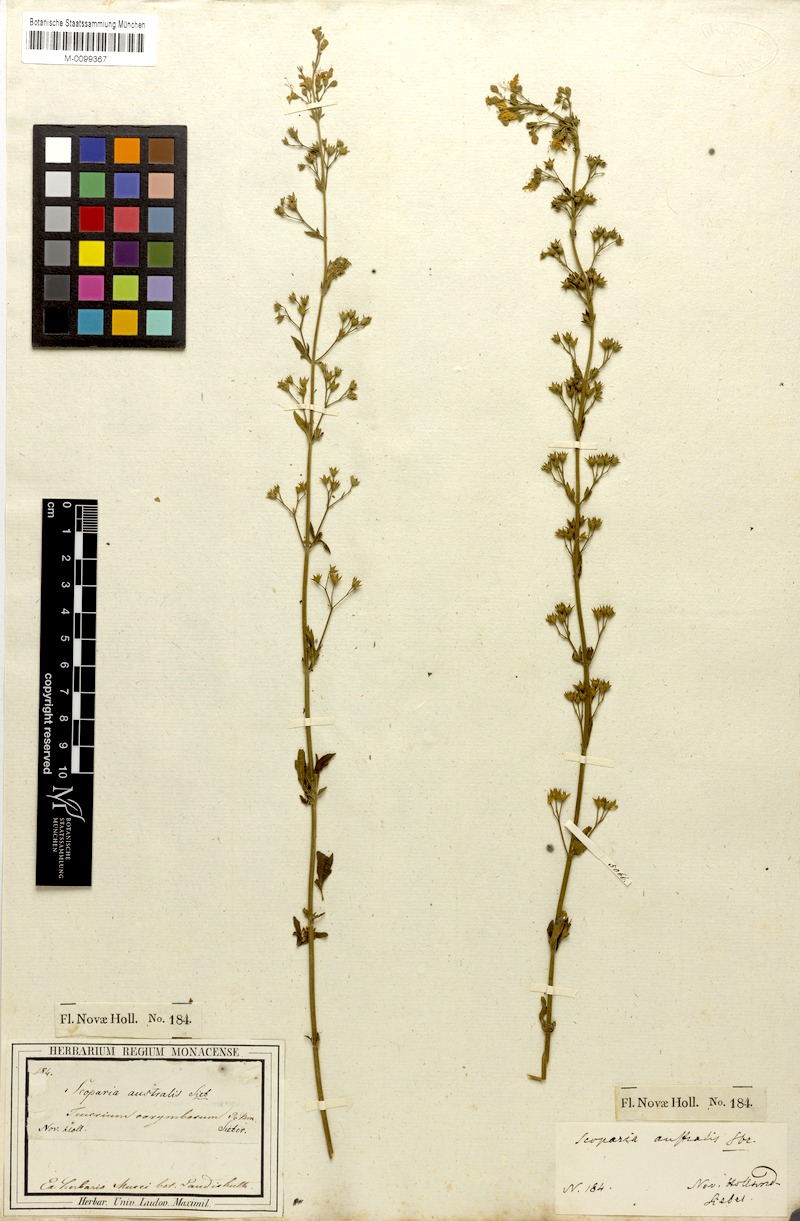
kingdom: Plantae
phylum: Tracheophyta
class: Magnoliopsida
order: Lamiales
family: Lamiaceae
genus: Teucrium
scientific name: Teucrium corymbosum
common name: Forest germander
